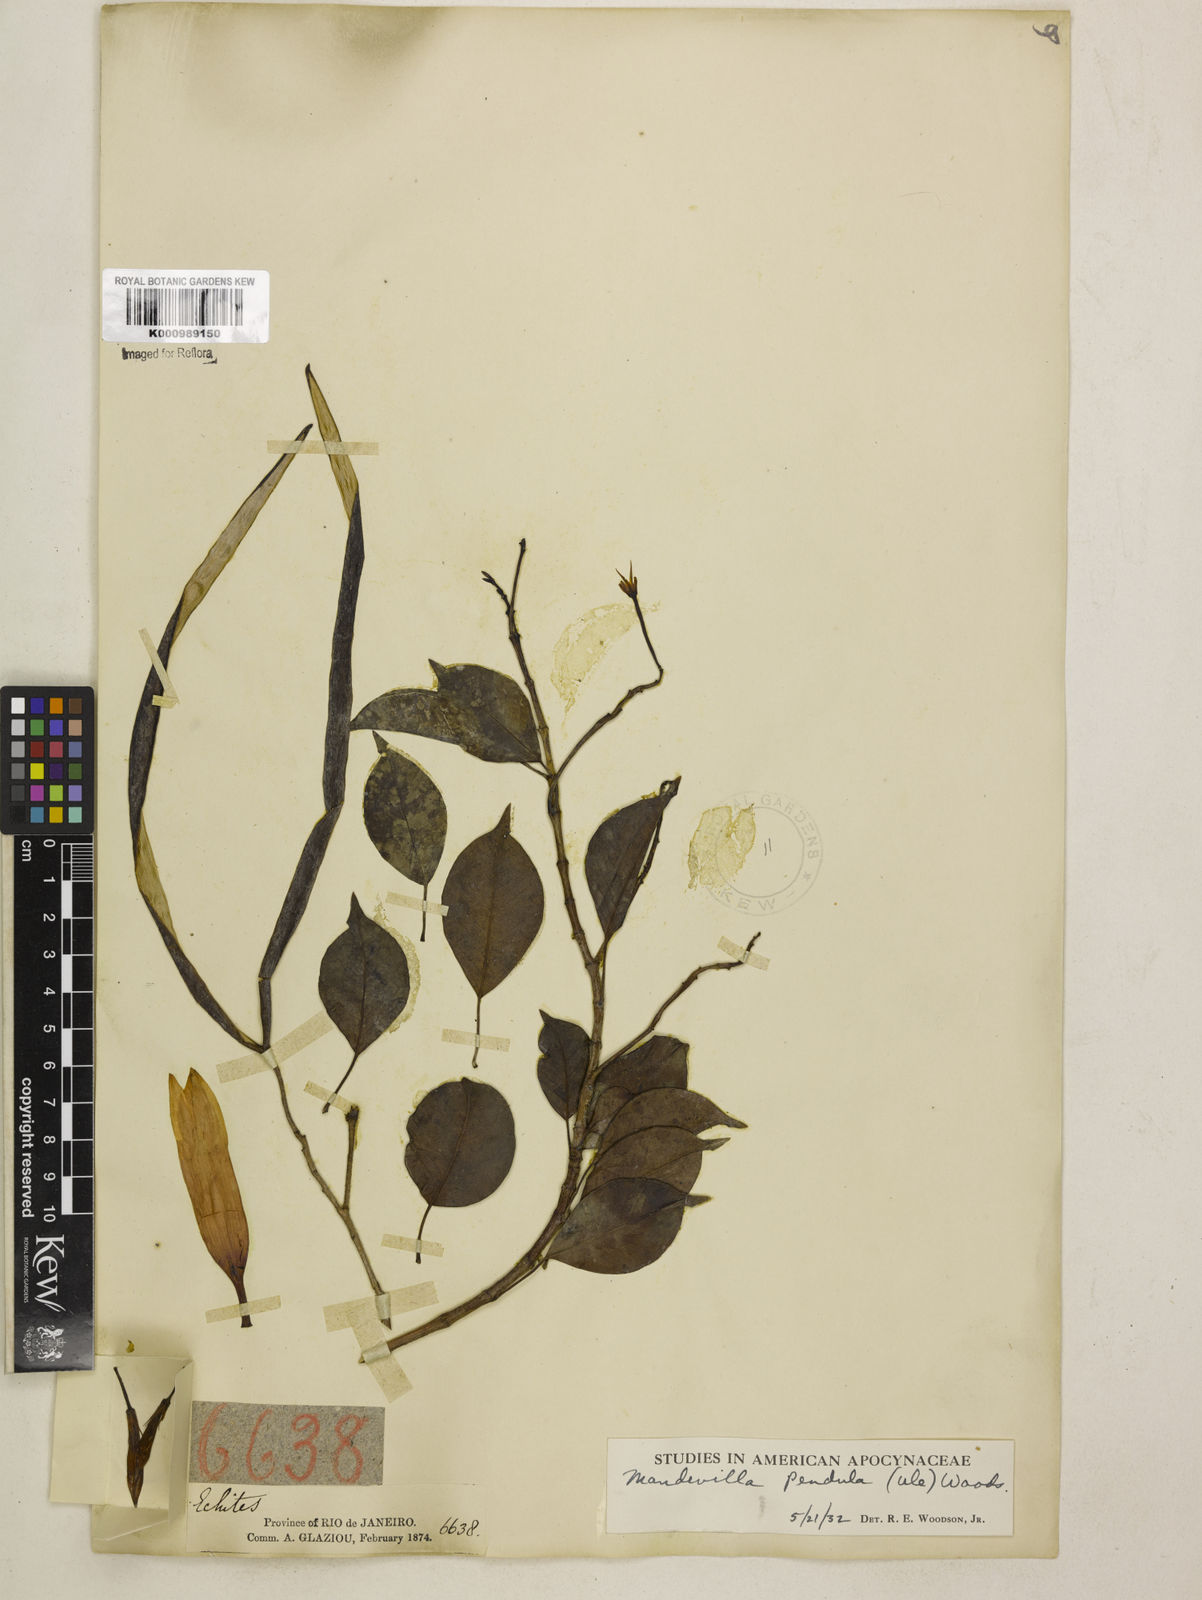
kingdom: Plantae
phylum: Tracheophyta
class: Magnoliopsida
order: Gentianales
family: Apocynaceae
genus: Mandevilla
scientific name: Mandevilla pendula
